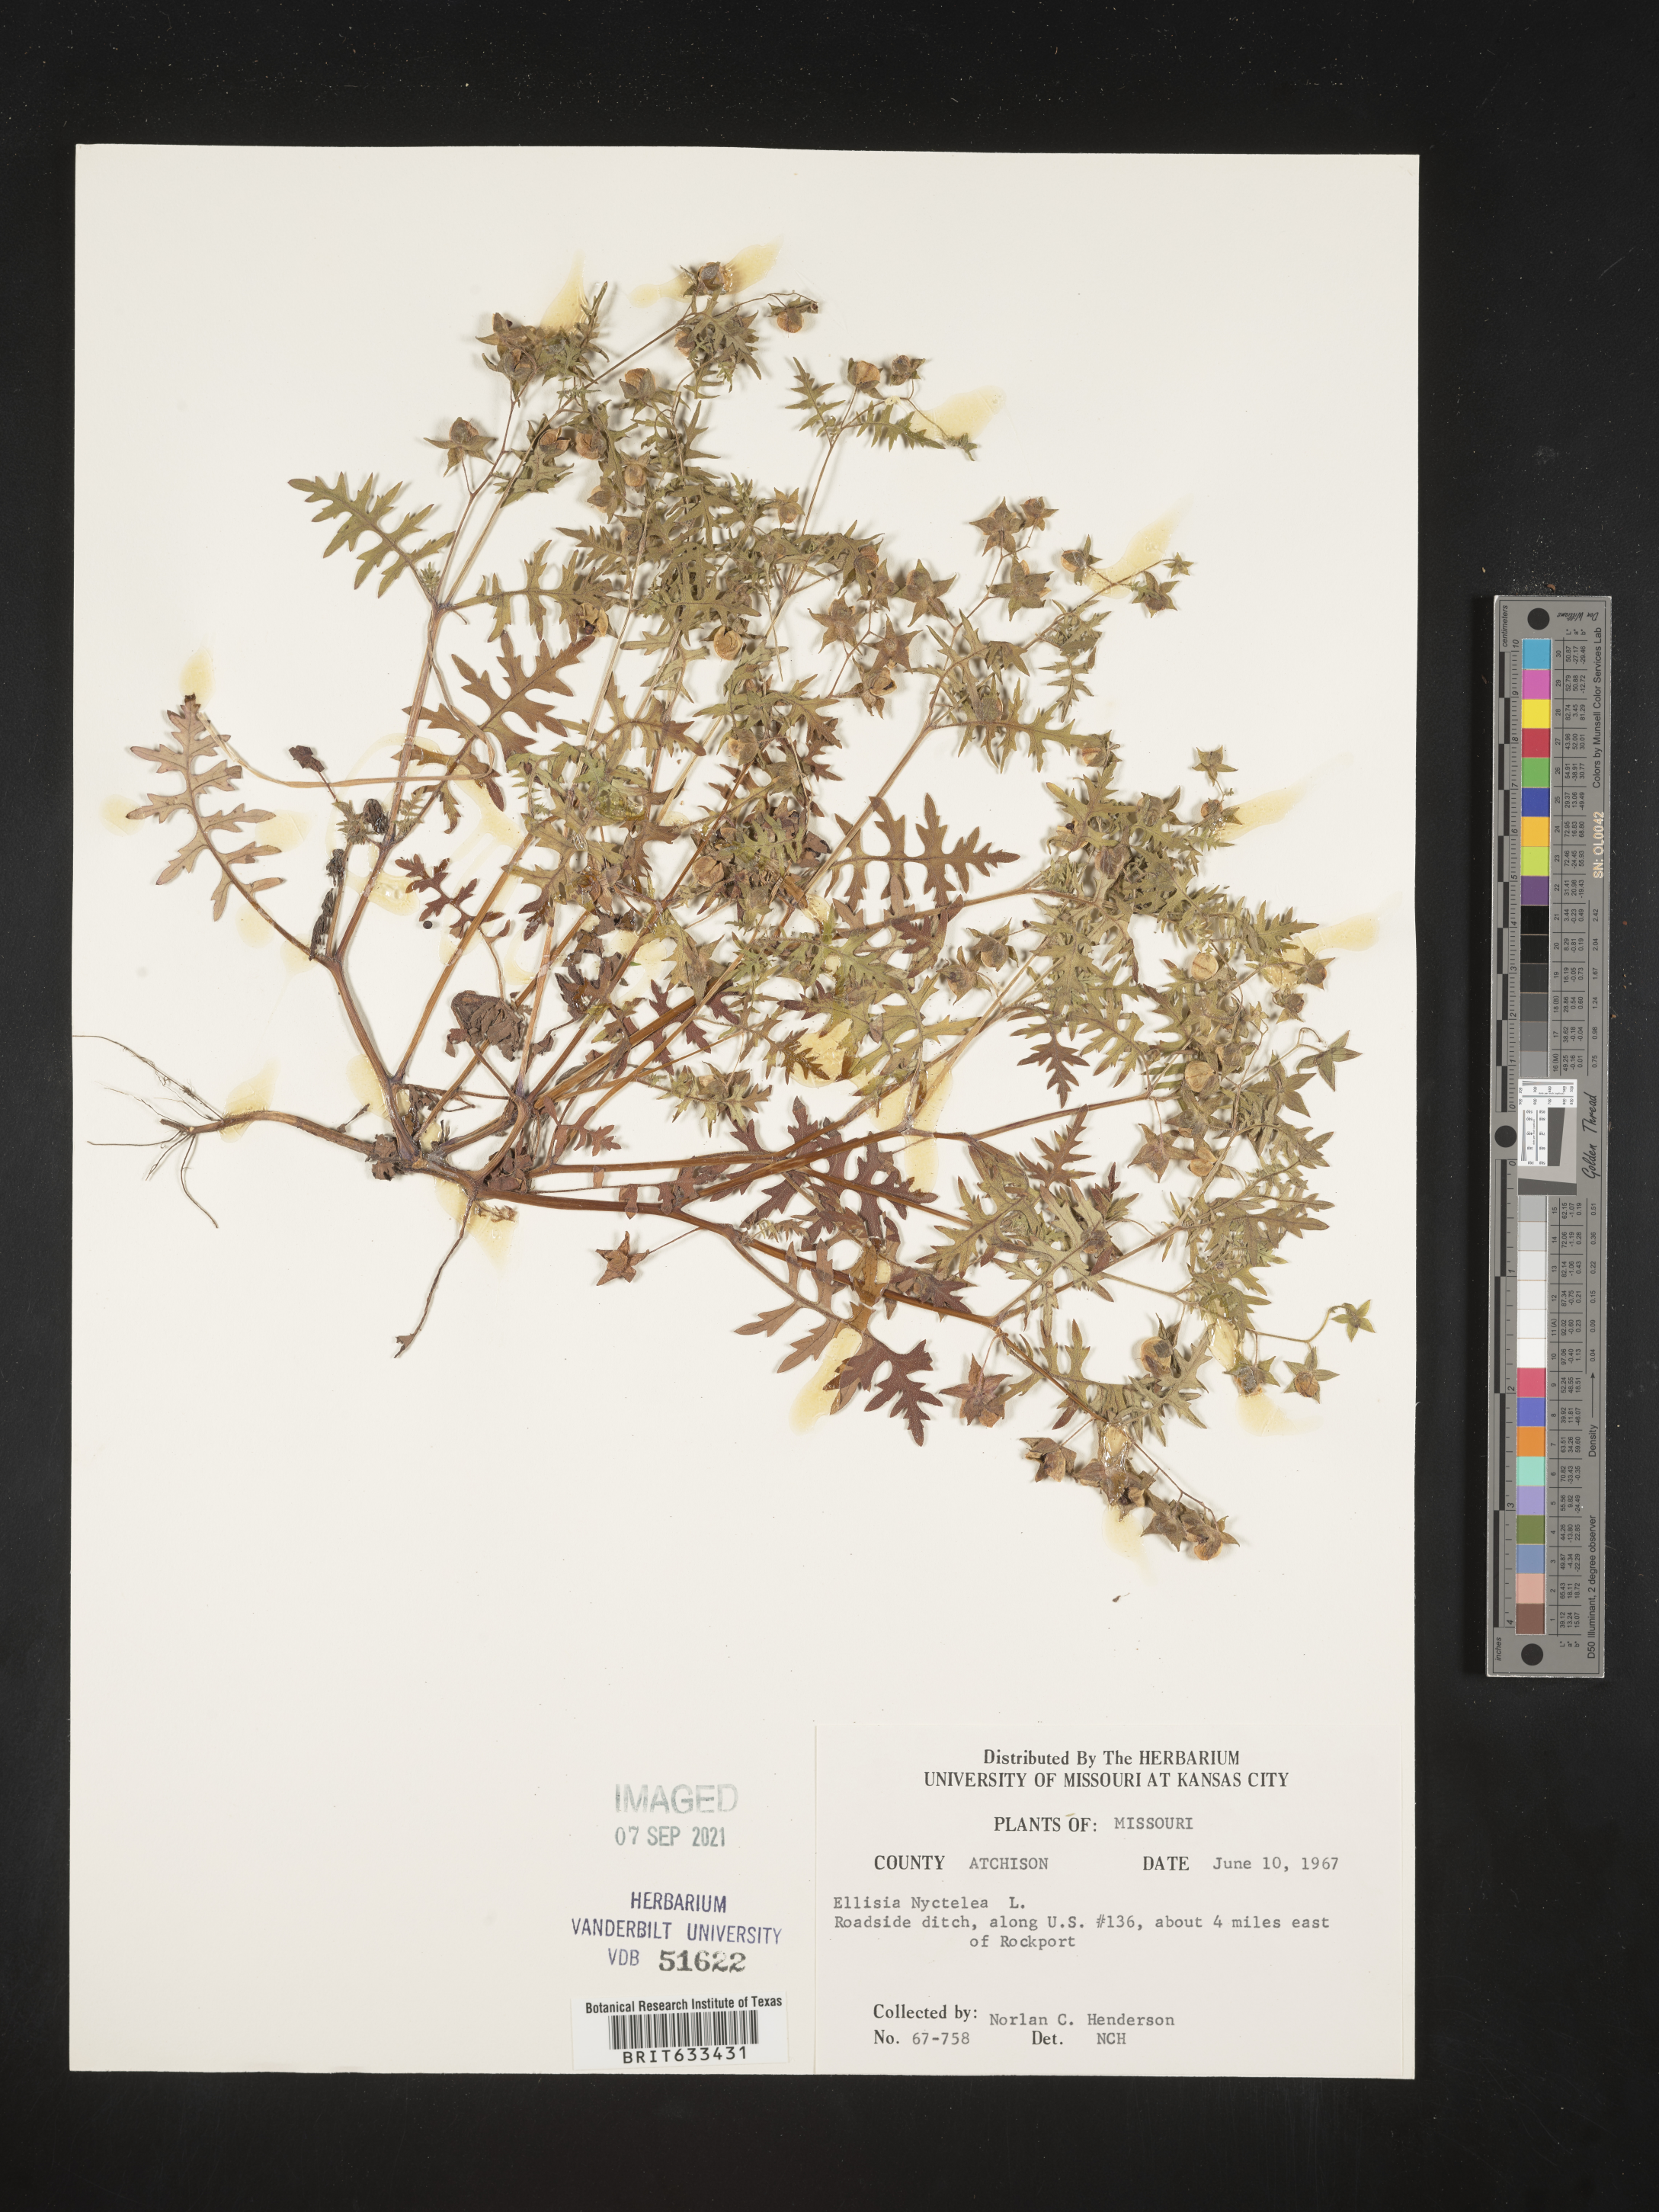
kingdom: Plantae
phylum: Tracheophyta
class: Magnoliopsida
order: Boraginales
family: Hydrophyllaceae
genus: Ellisia
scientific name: Ellisia nyctelea
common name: Aunt lucy
